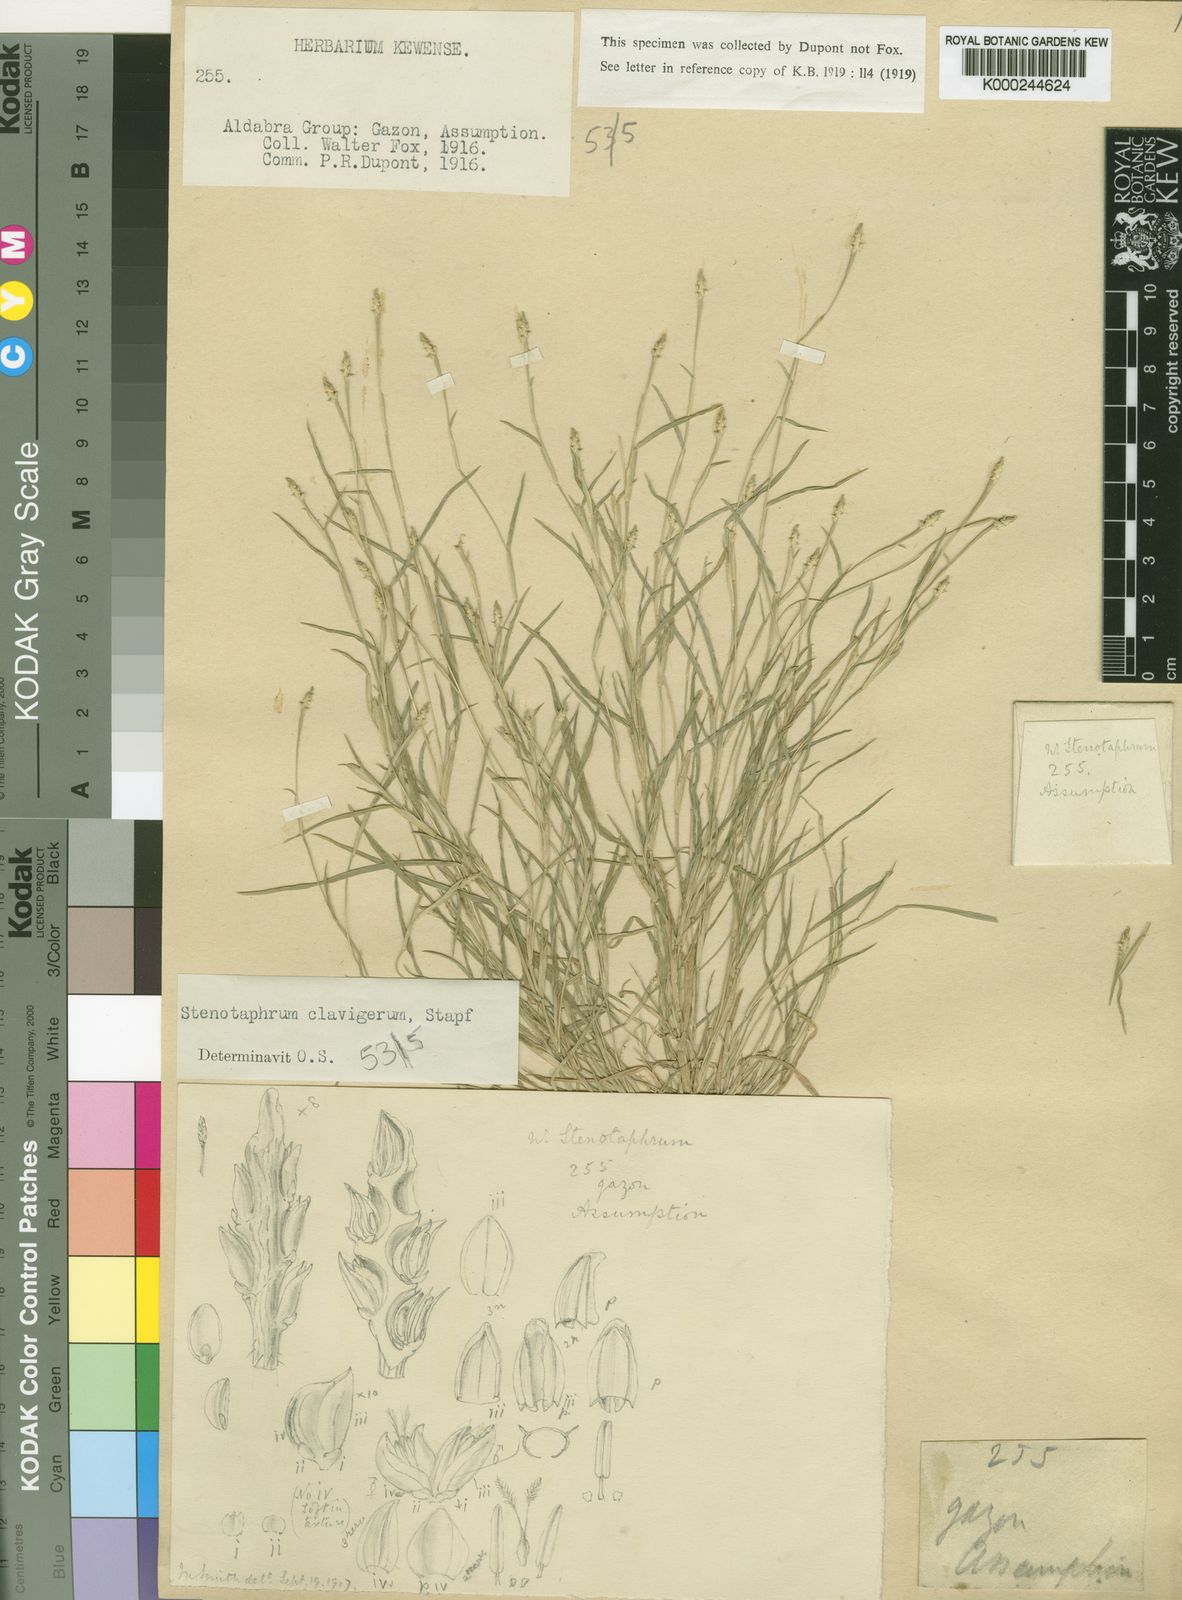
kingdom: Plantae
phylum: Tracheophyta
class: Liliopsida
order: Poales
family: Poaceae
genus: Stenotaphrum
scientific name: Stenotaphrum clavigerum
